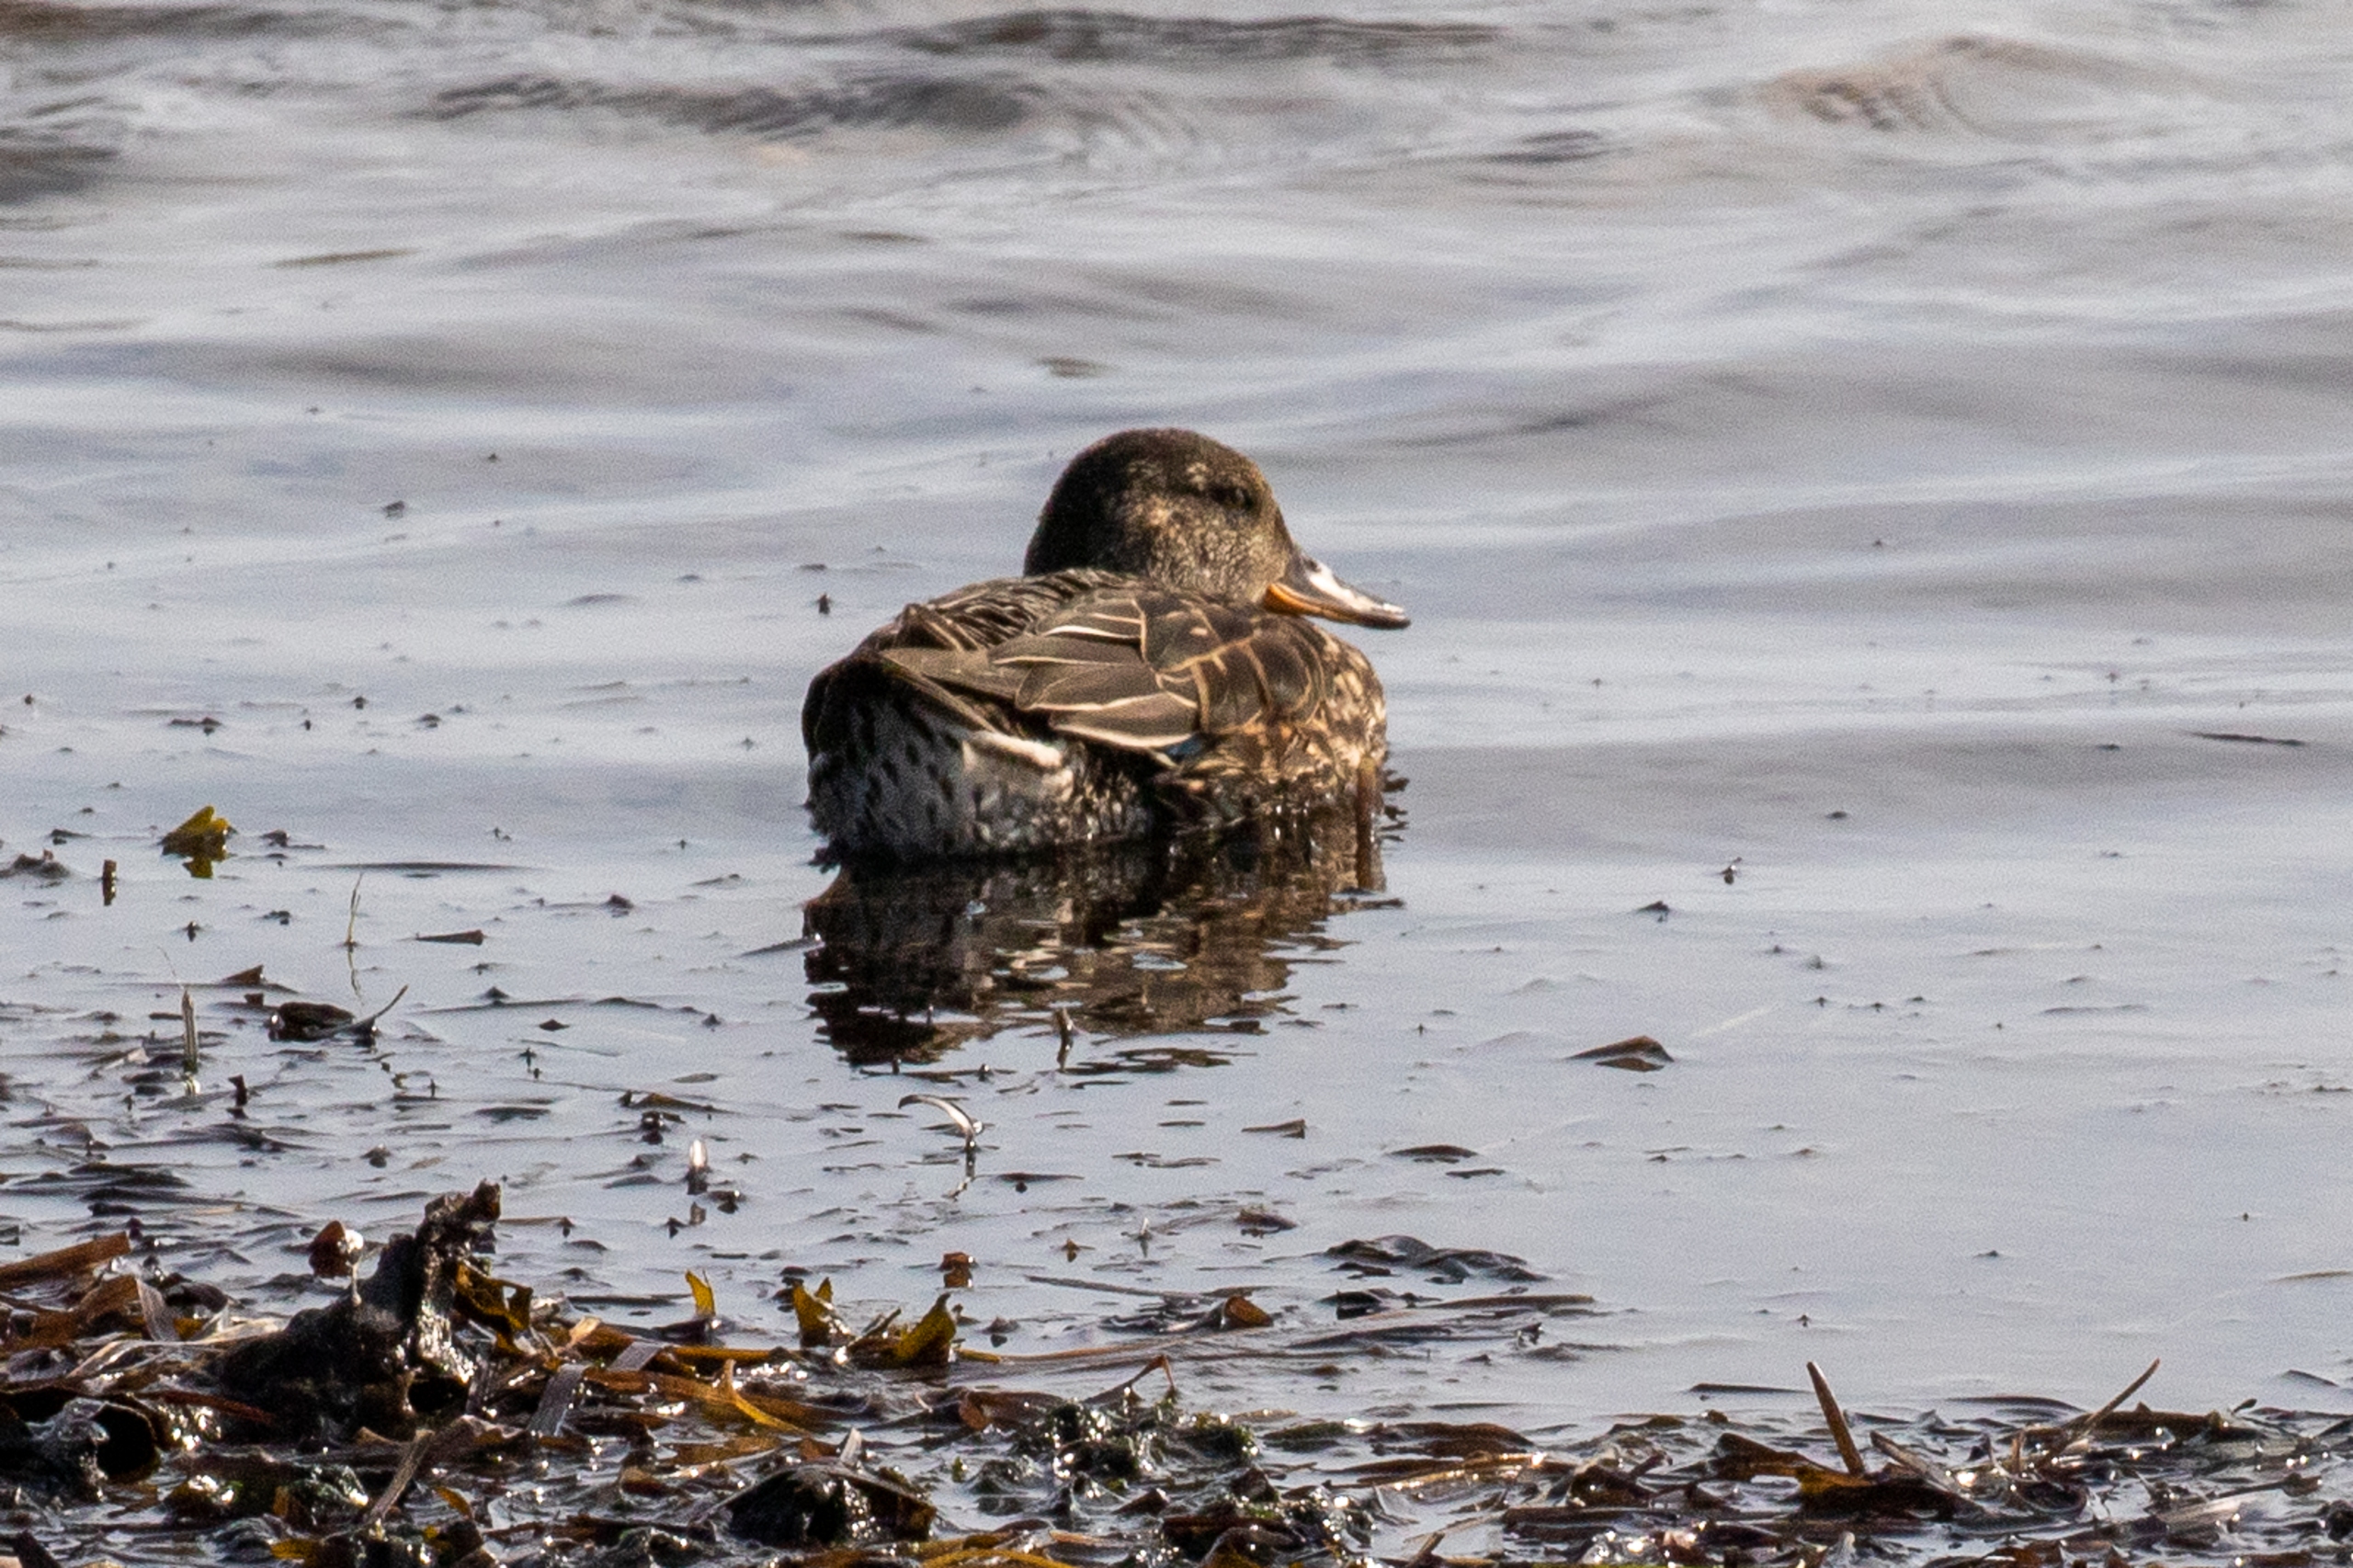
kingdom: Animalia
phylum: Chordata
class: Aves
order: Anseriformes
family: Anatidae
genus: Anas
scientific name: Anas platyrhynchos
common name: Gråand
